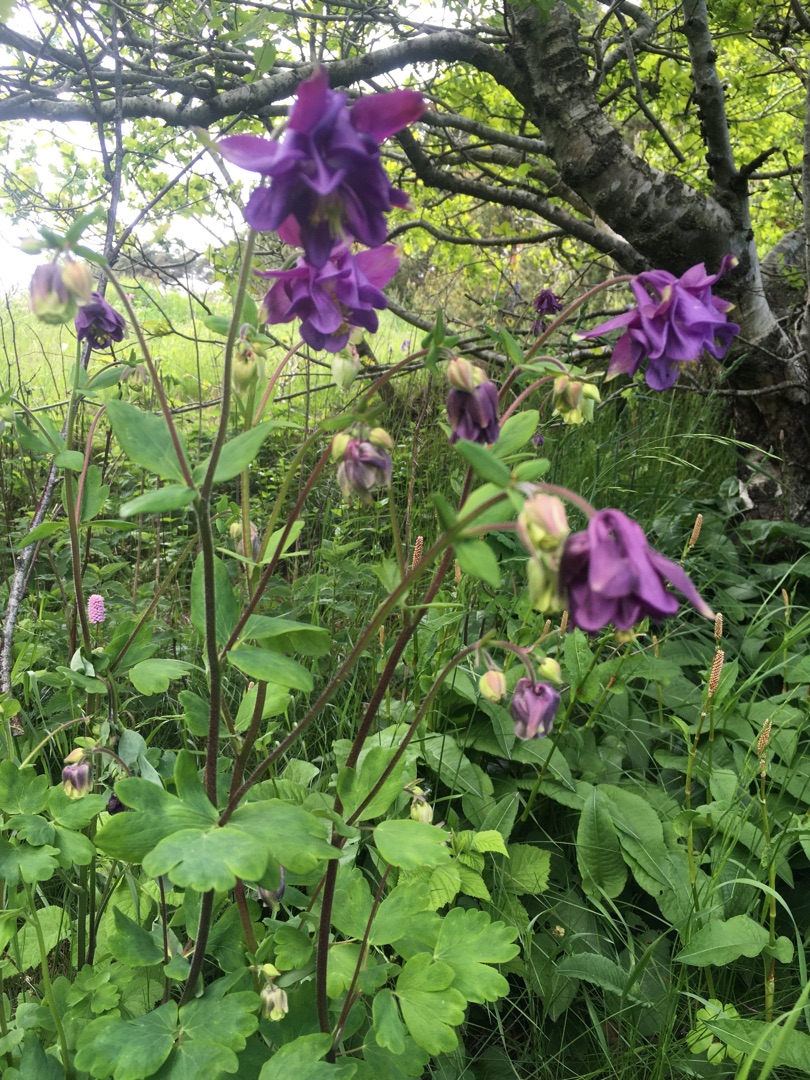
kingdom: Plantae
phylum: Tracheophyta
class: Magnoliopsida
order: Ranunculales
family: Ranunculaceae
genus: Aquilegia
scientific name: Aquilegia vulgaris
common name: Akeleje
